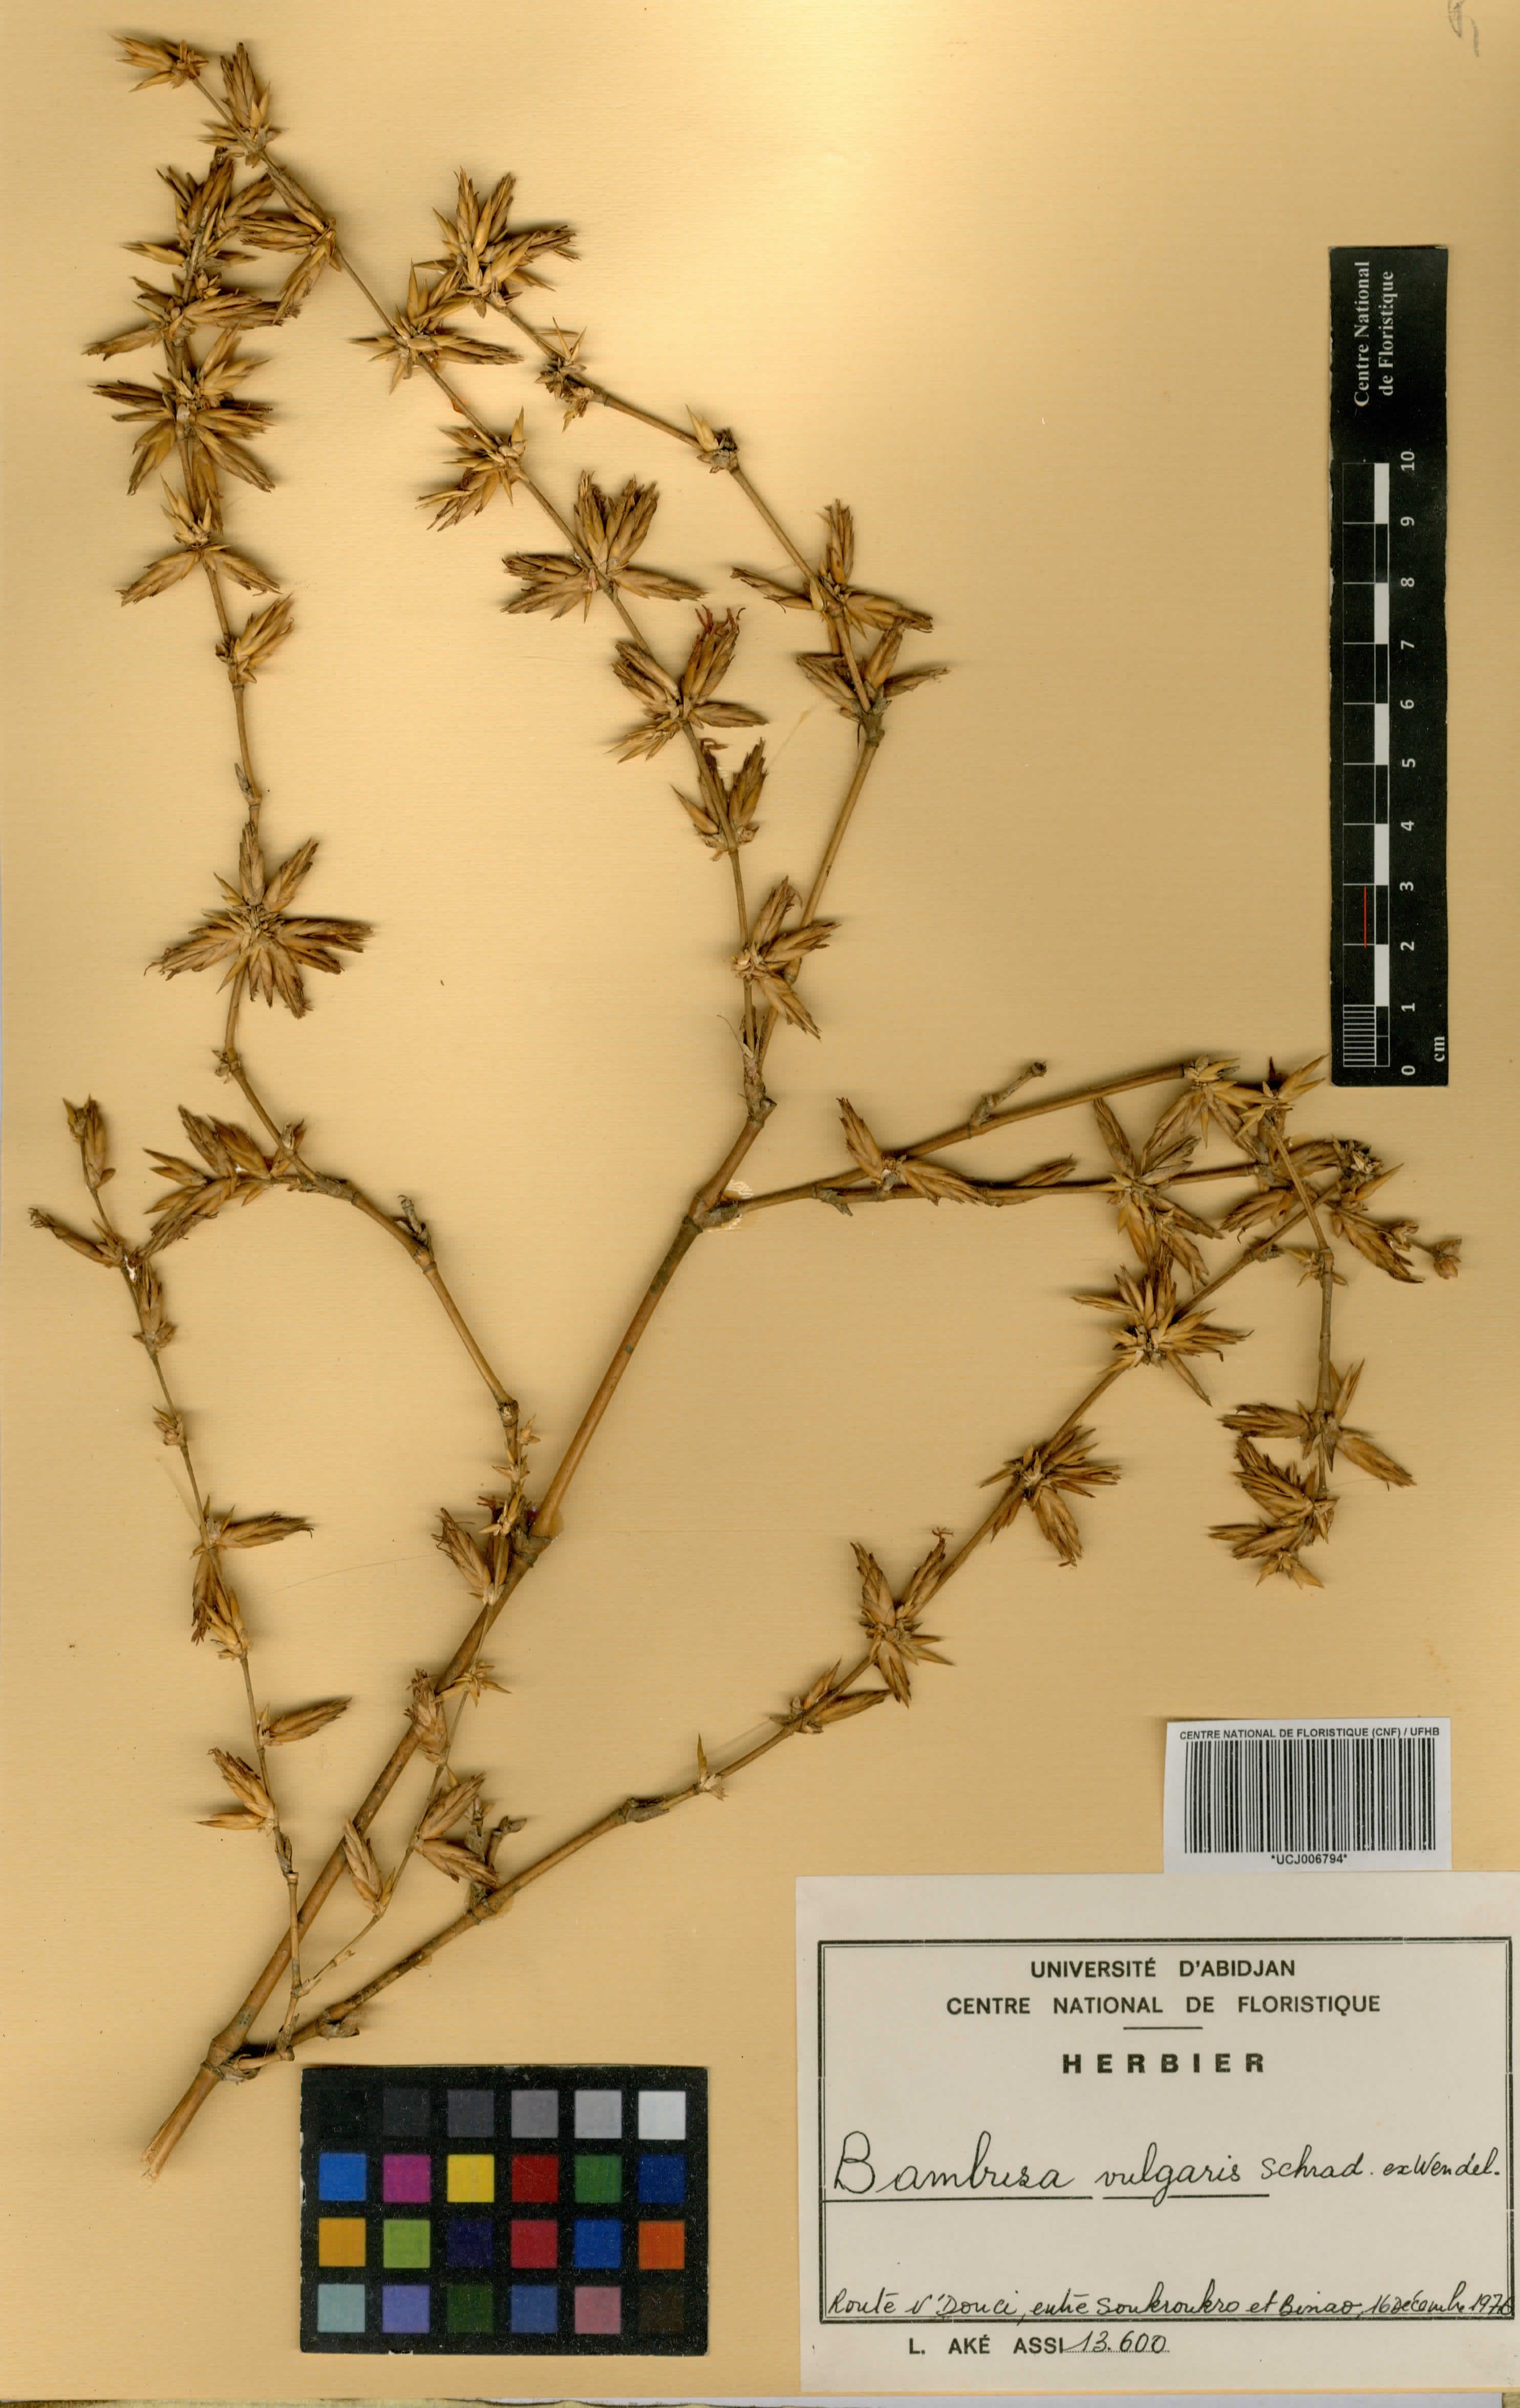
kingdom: Plantae
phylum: Tracheophyta
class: Liliopsida
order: Poales
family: Poaceae
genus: Bambusa
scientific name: Bambusa vulgaris
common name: Common bamboo
